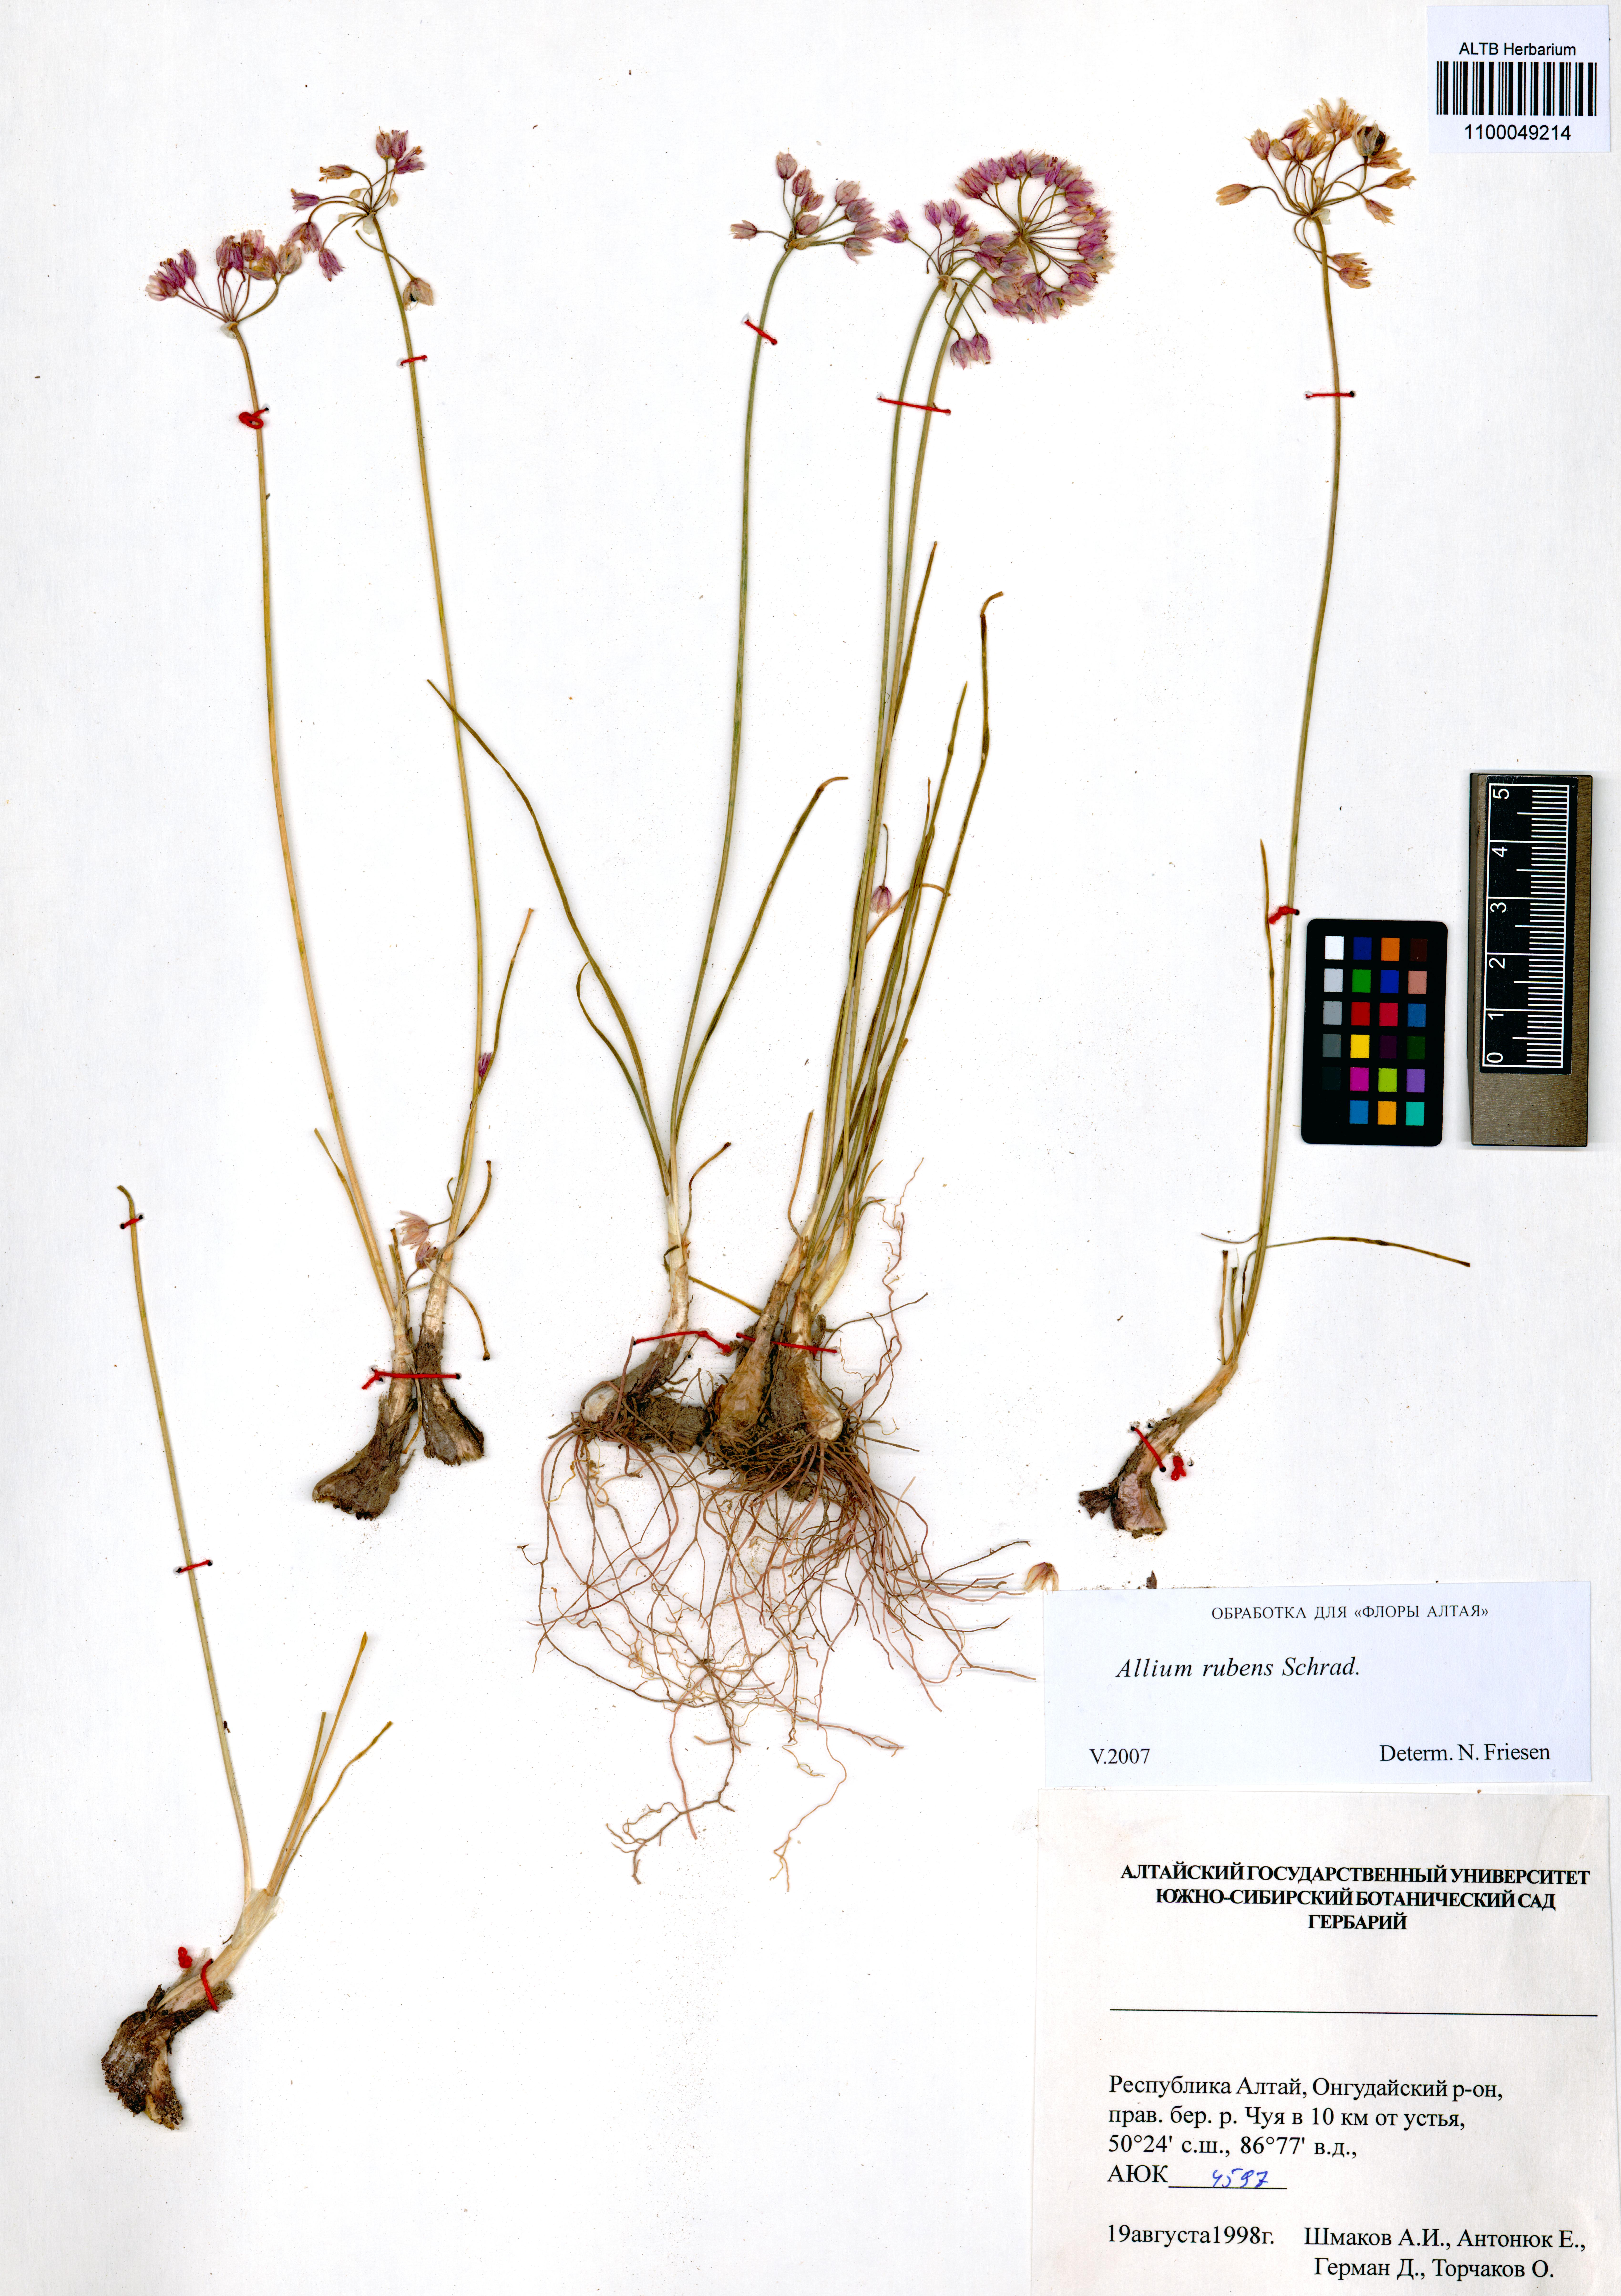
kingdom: Plantae
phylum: Tracheophyta
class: Liliopsida
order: Asparagales
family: Amaryllidaceae
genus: Allium
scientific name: Allium rubens
